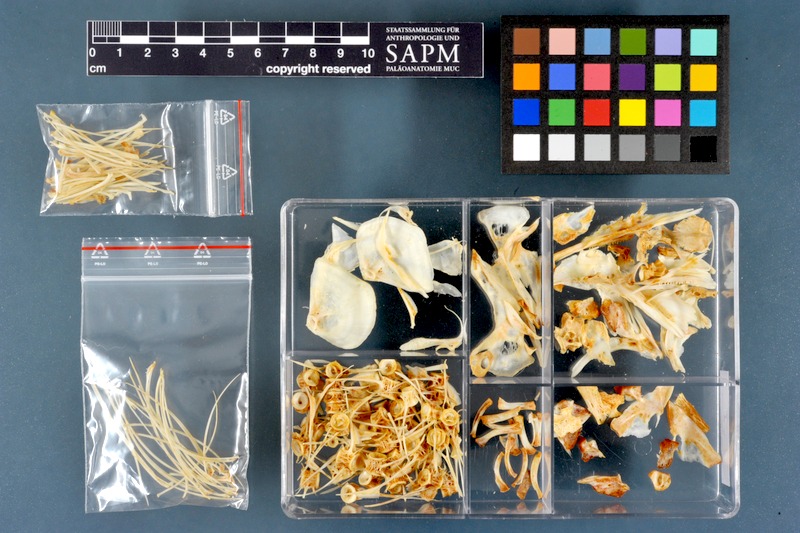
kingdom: Animalia
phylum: Chordata
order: Osteoglossiformes
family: Mormyridae
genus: Mormyrus
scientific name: Mormyrus kannume
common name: Elephant-snout fish
